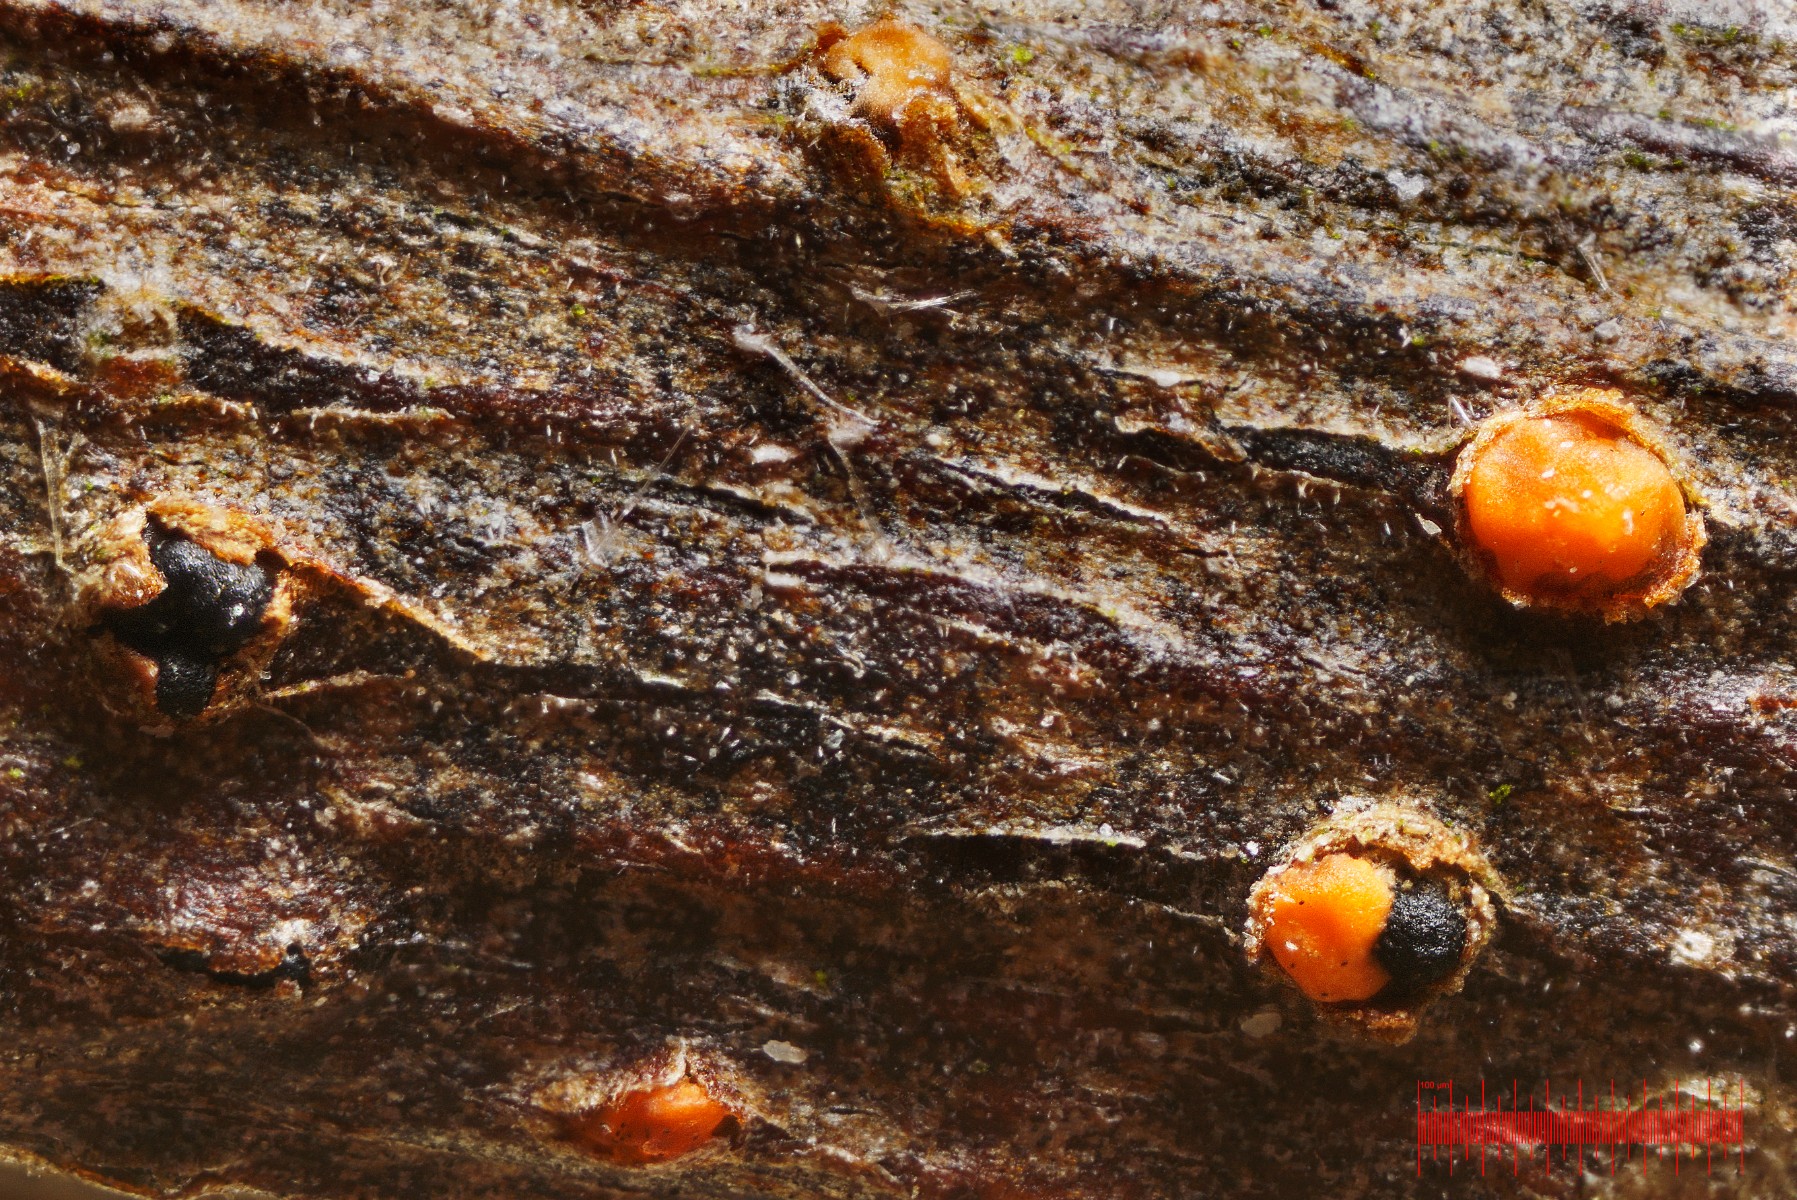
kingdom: Fungi
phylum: Ascomycota
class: Sordariomycetes
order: Coronophorales
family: Nitschkiaceae
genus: Nitschkia
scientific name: Nitschkia parasitans
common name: snyltende skålkerne
